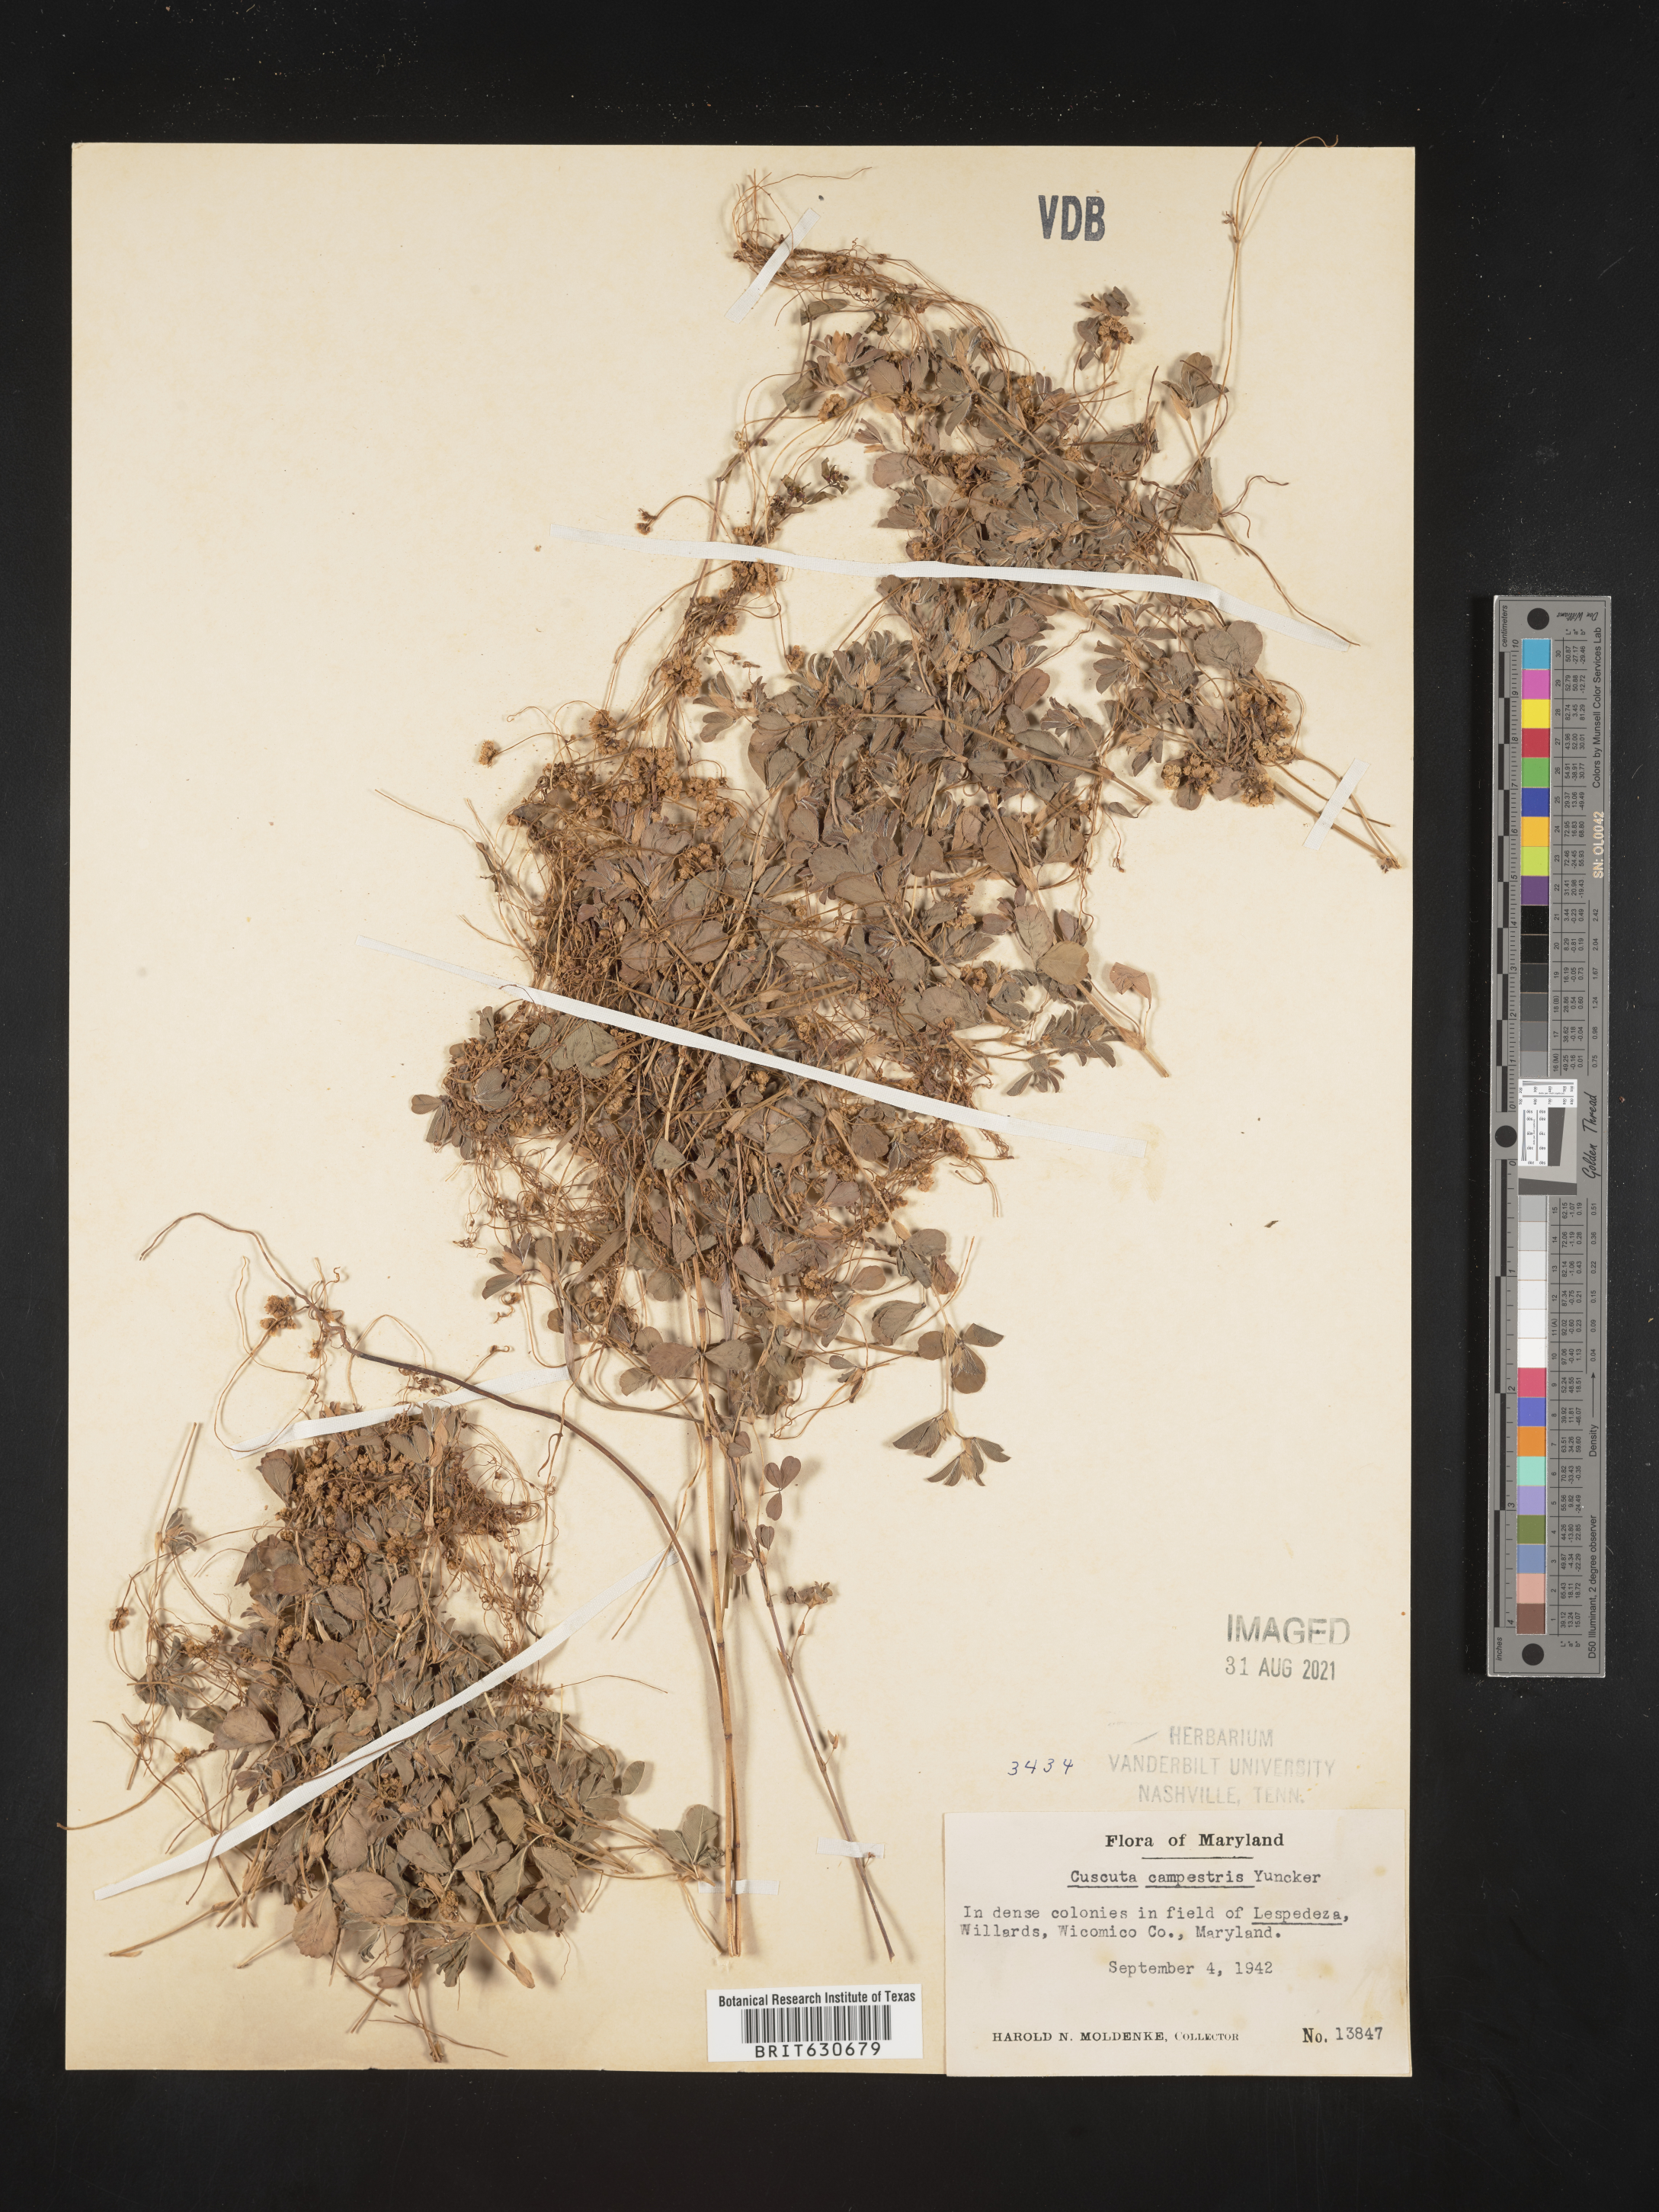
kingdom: Plantae
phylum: Tracheophyta
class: Magnoliopsida
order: Solanales
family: Convolvulaceae
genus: Cuscuta
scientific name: Cuscuta campestris
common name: Yellow dodder
